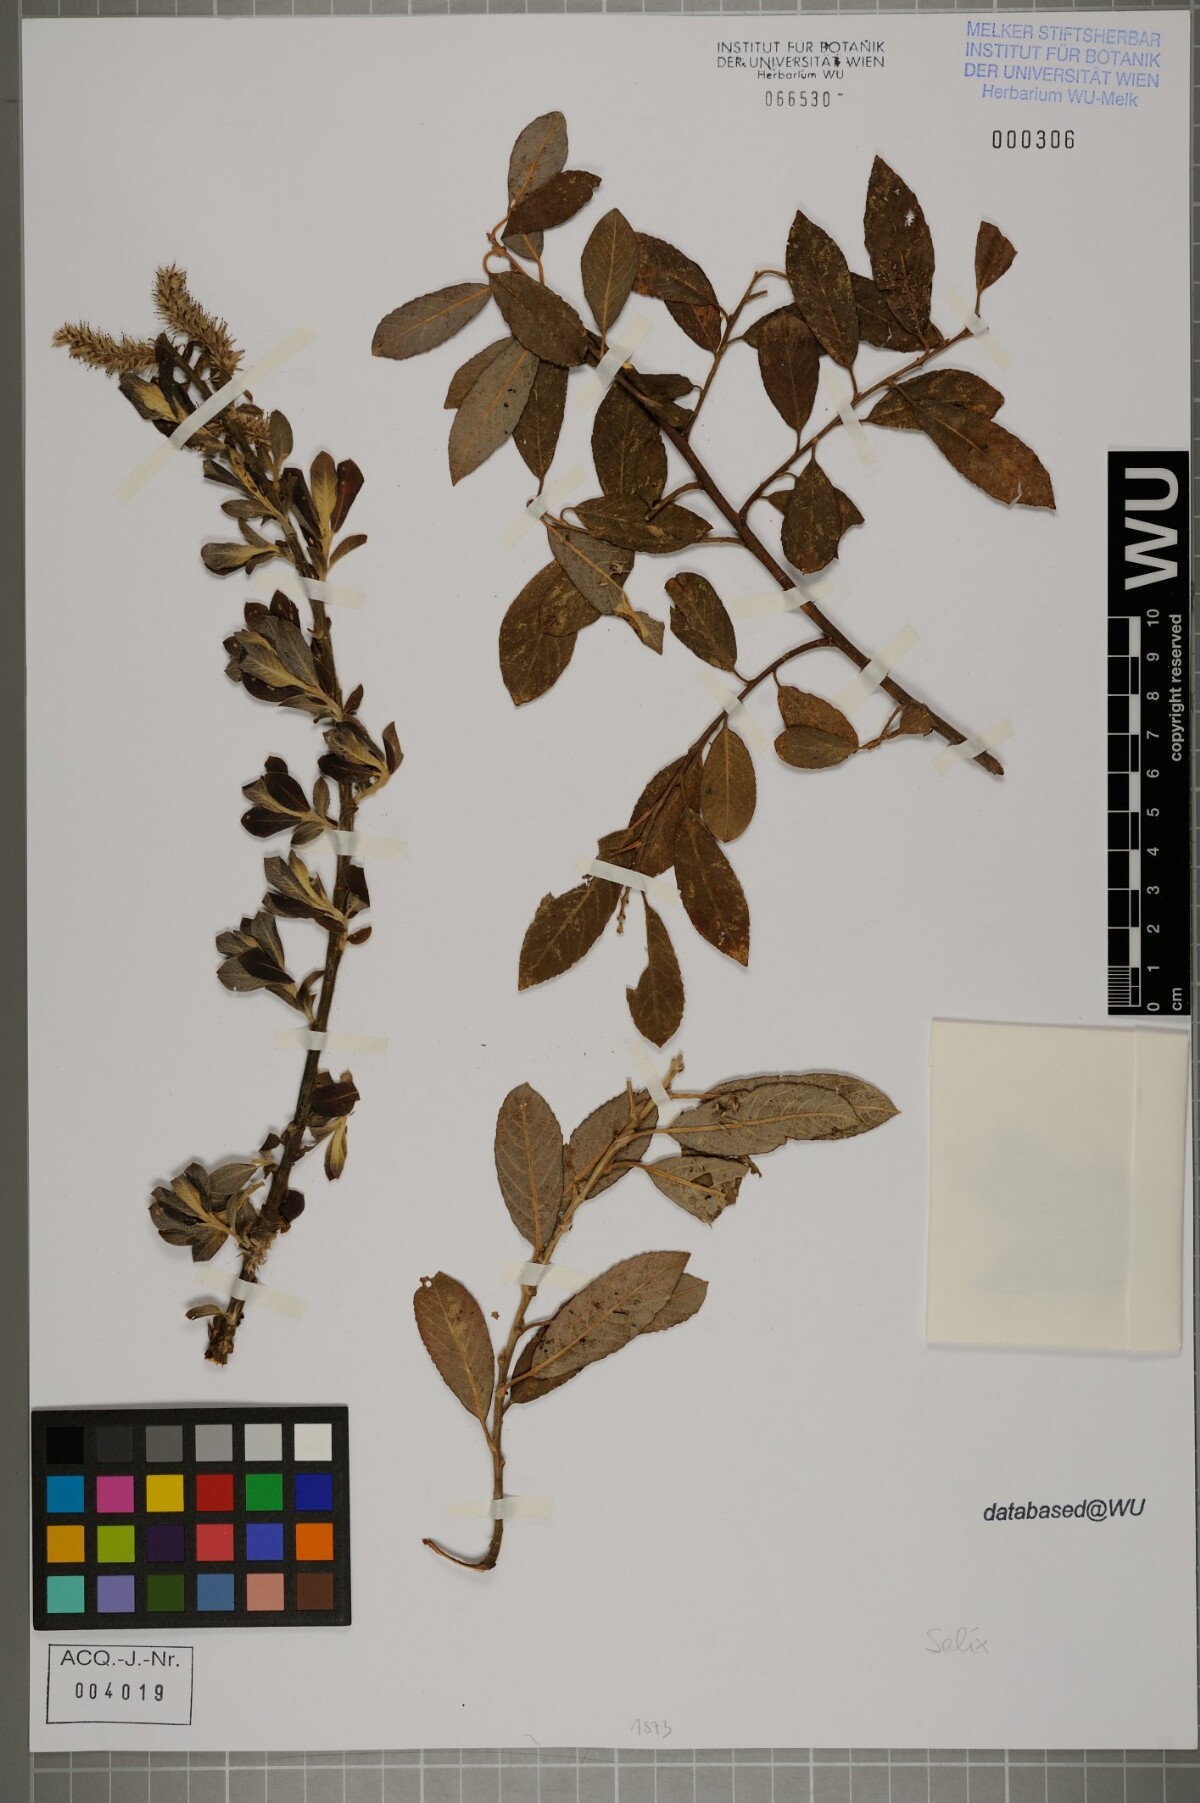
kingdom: Plantae
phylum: Tracheophyta
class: Magnoliopsida
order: Malpighiales
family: Salicaceae
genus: Salix
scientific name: Salix
